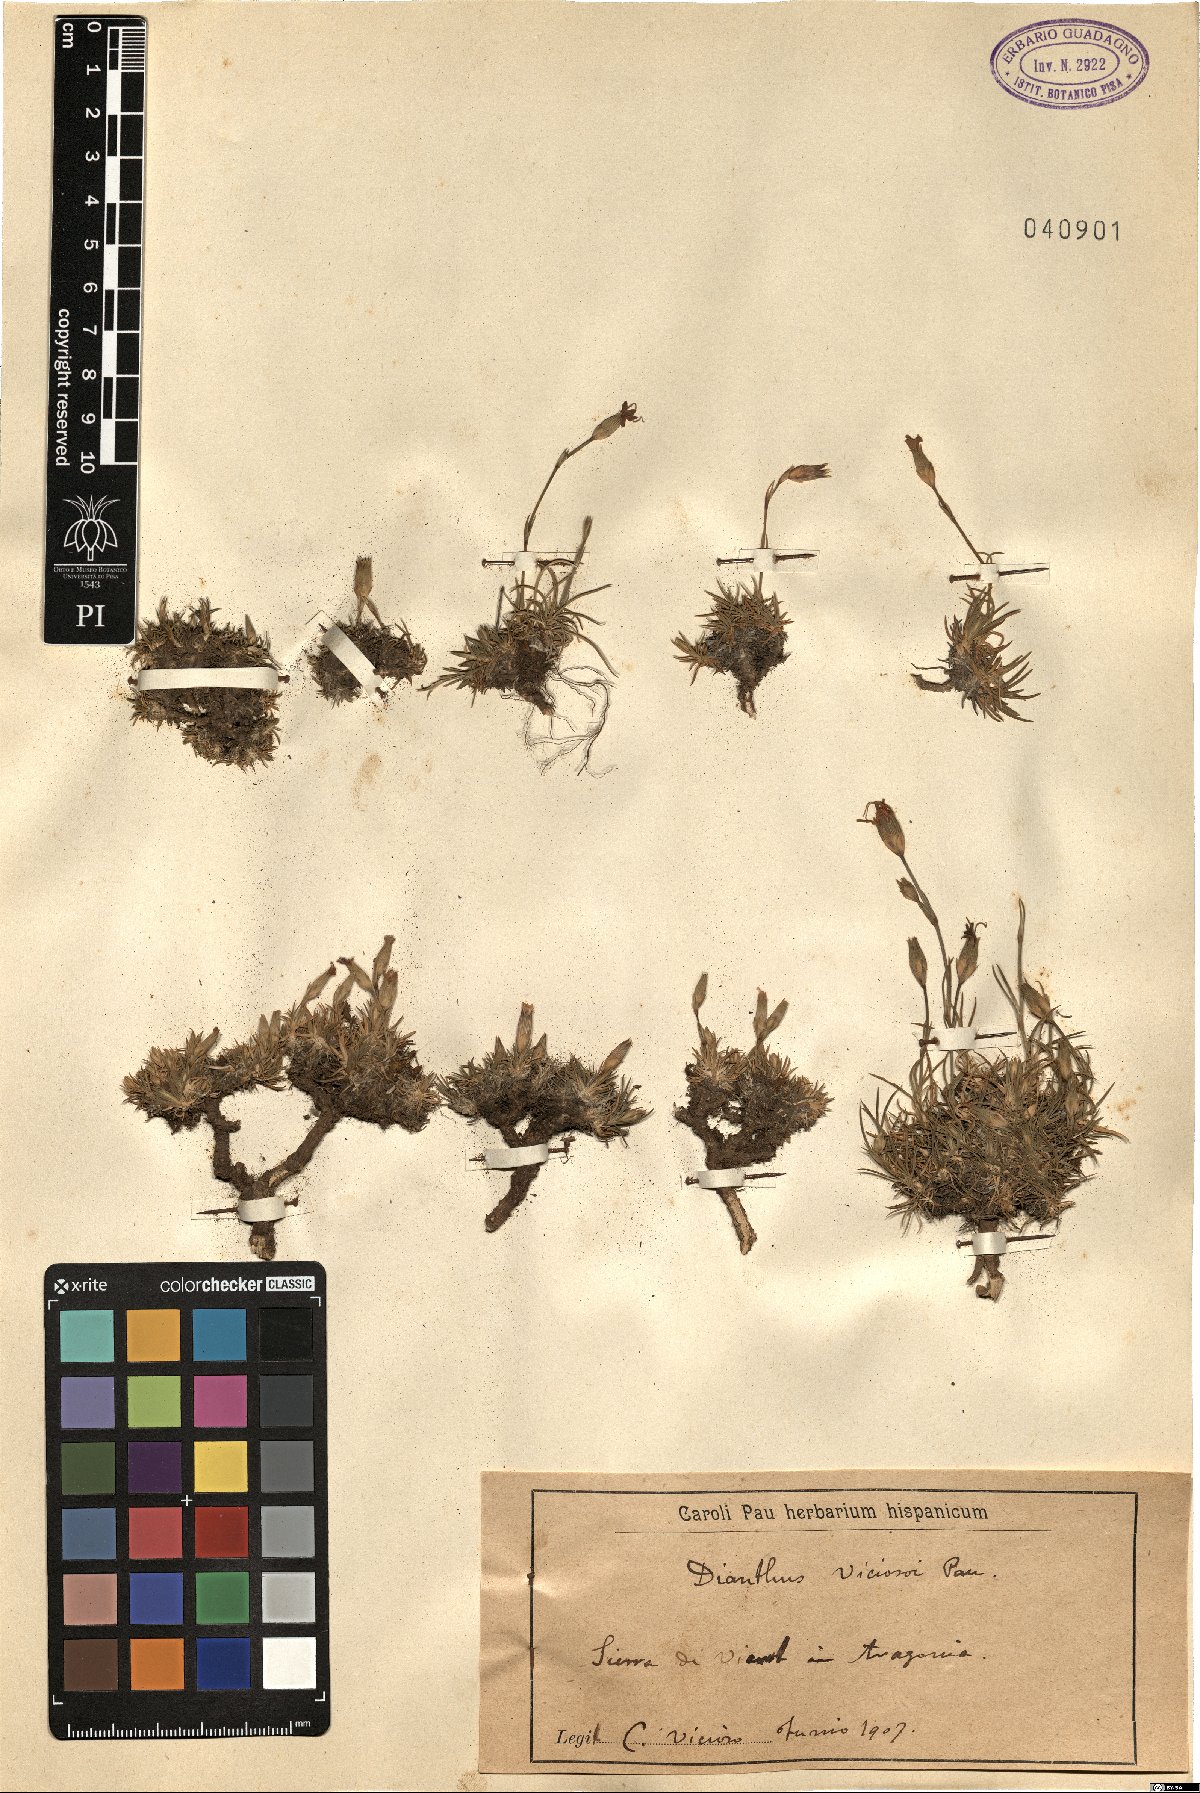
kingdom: Plantae
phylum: Tracheophyta
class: Magnoliopsida
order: Caryophyllales
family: Caryophyllaceae
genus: Dianthus
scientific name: Dianthus
